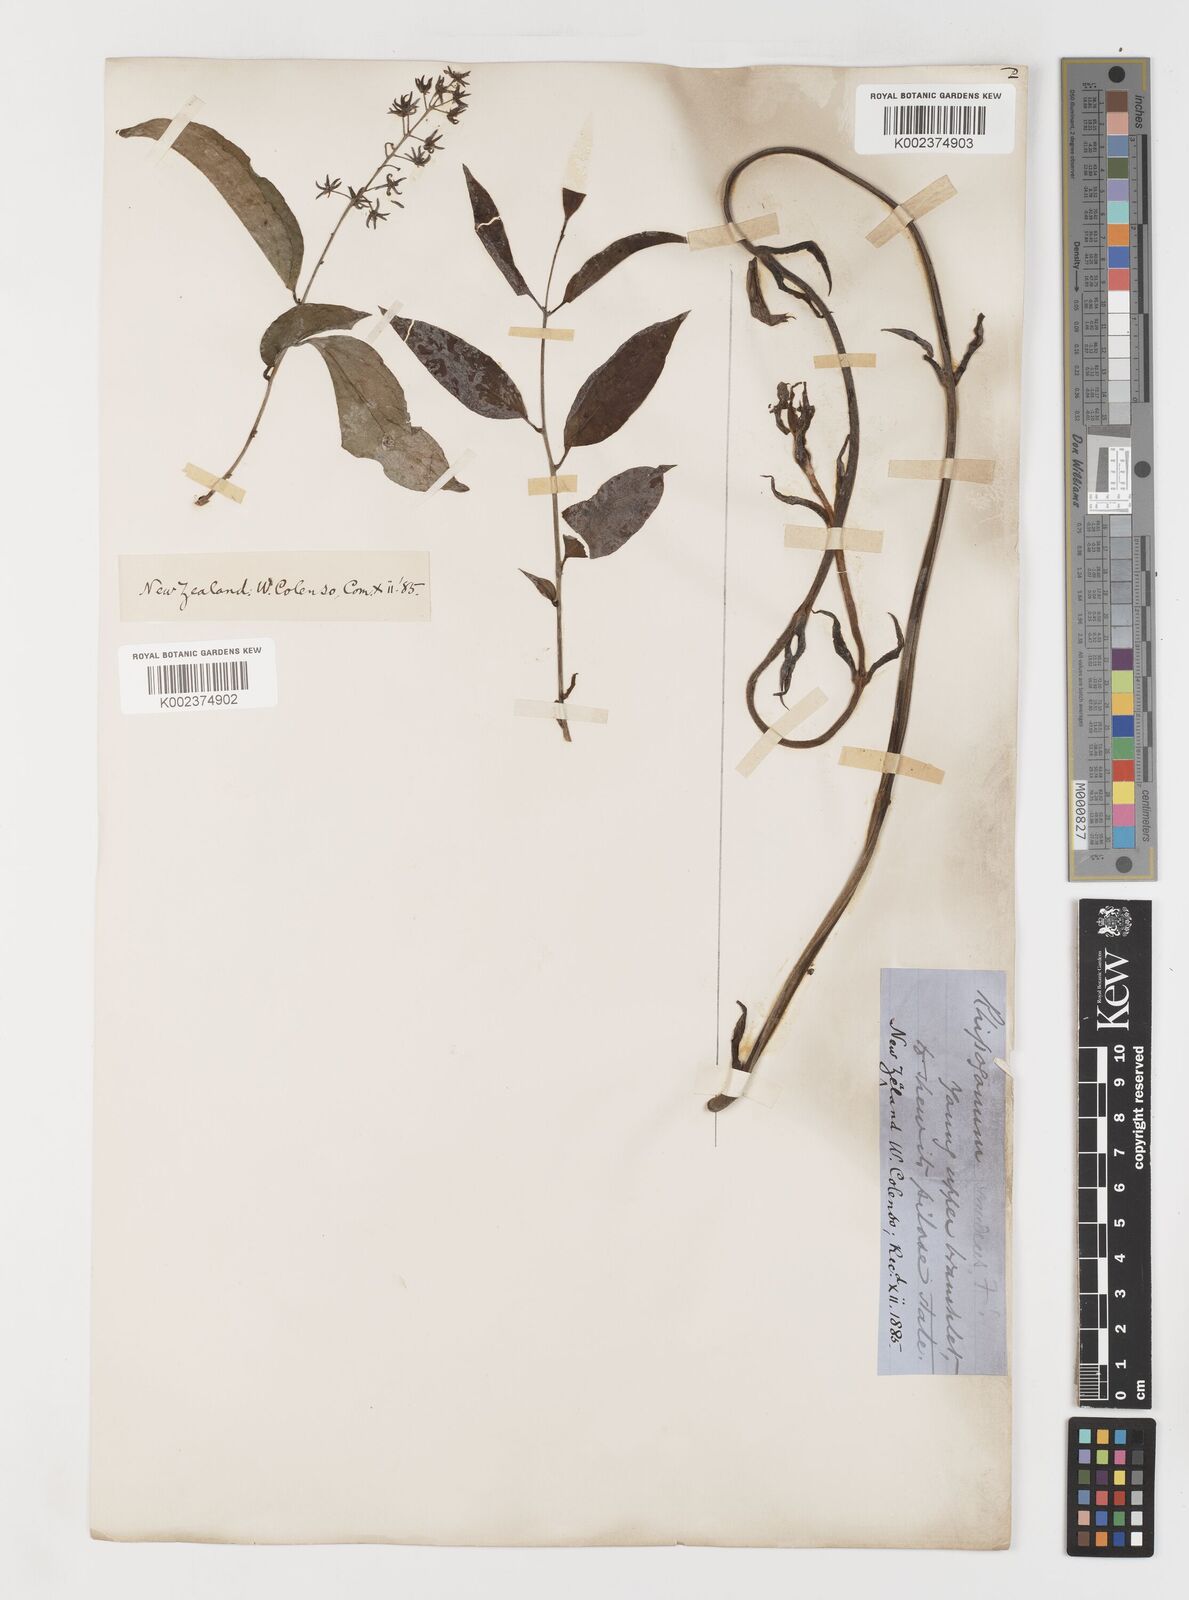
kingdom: Plantae
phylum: Tracheophyta
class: Liliopsida
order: Liliales
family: Ripogonaceae
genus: Ripogonum
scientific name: Ripogonum scandens
